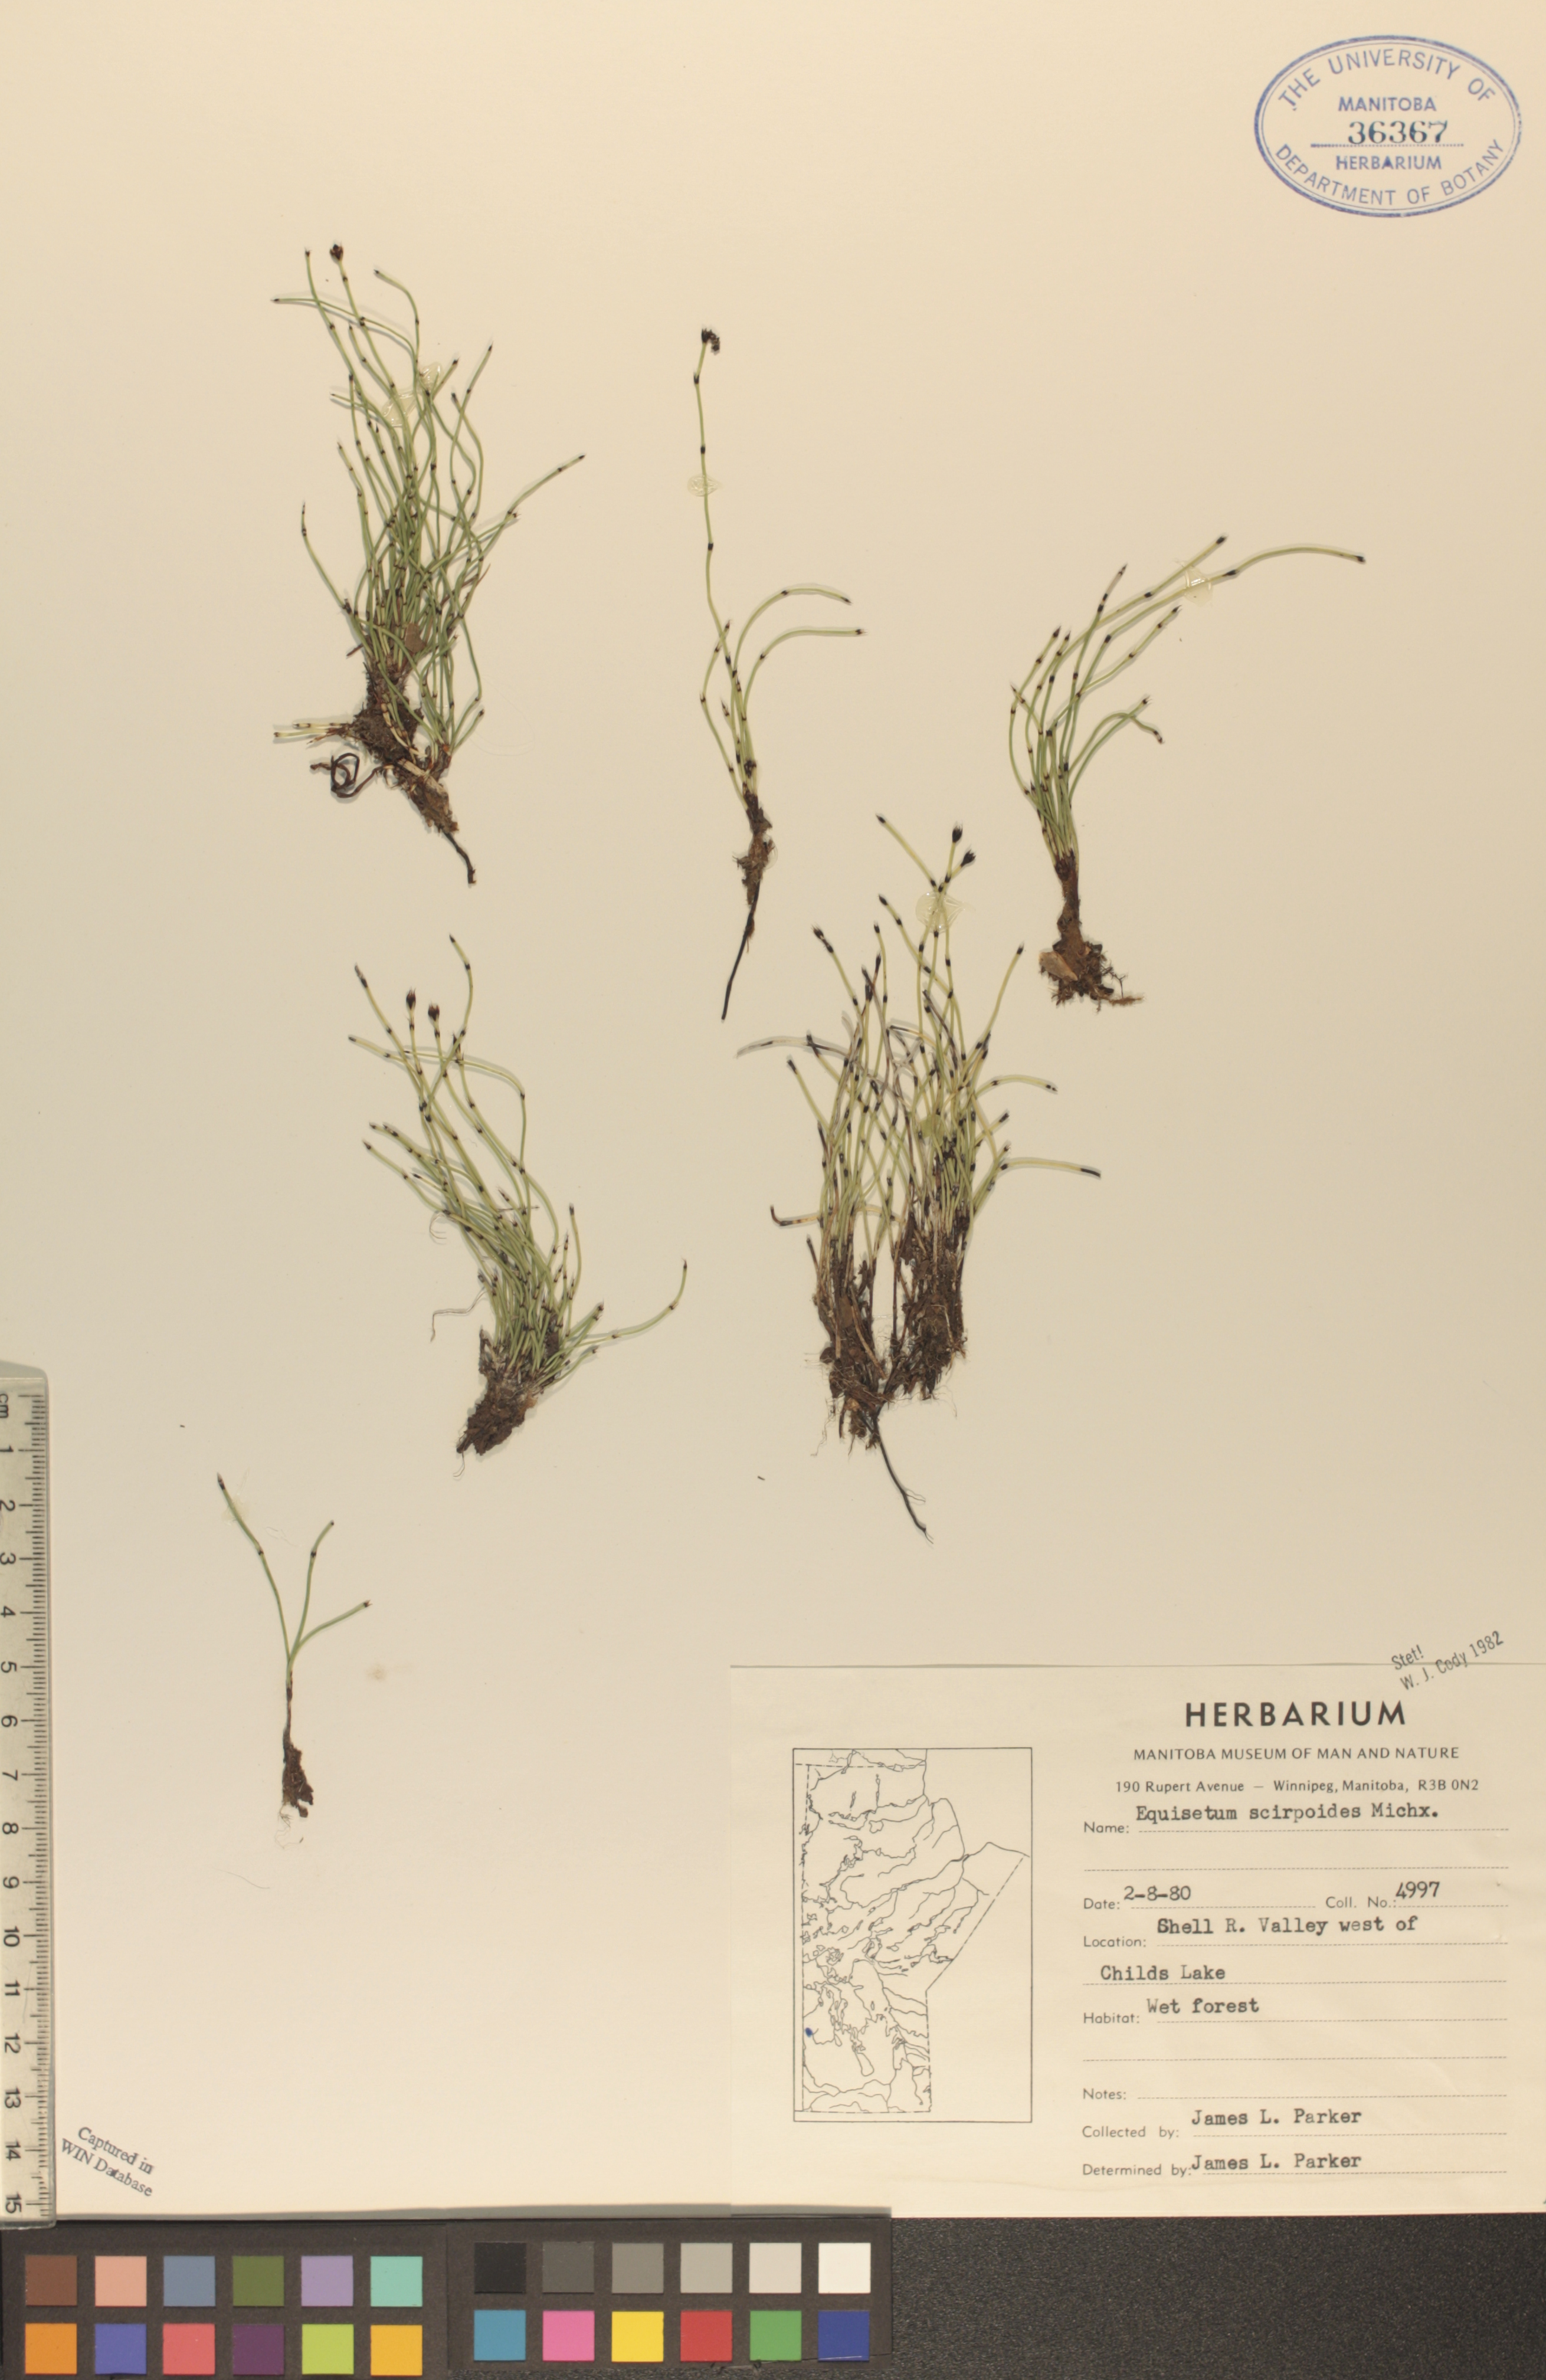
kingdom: Plantae
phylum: Tracheophyta
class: Polypodiopsida
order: Equisetales
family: Equisetaceae
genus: Equisetum
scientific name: Equisetum scirpoides
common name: Delicate horsetail
